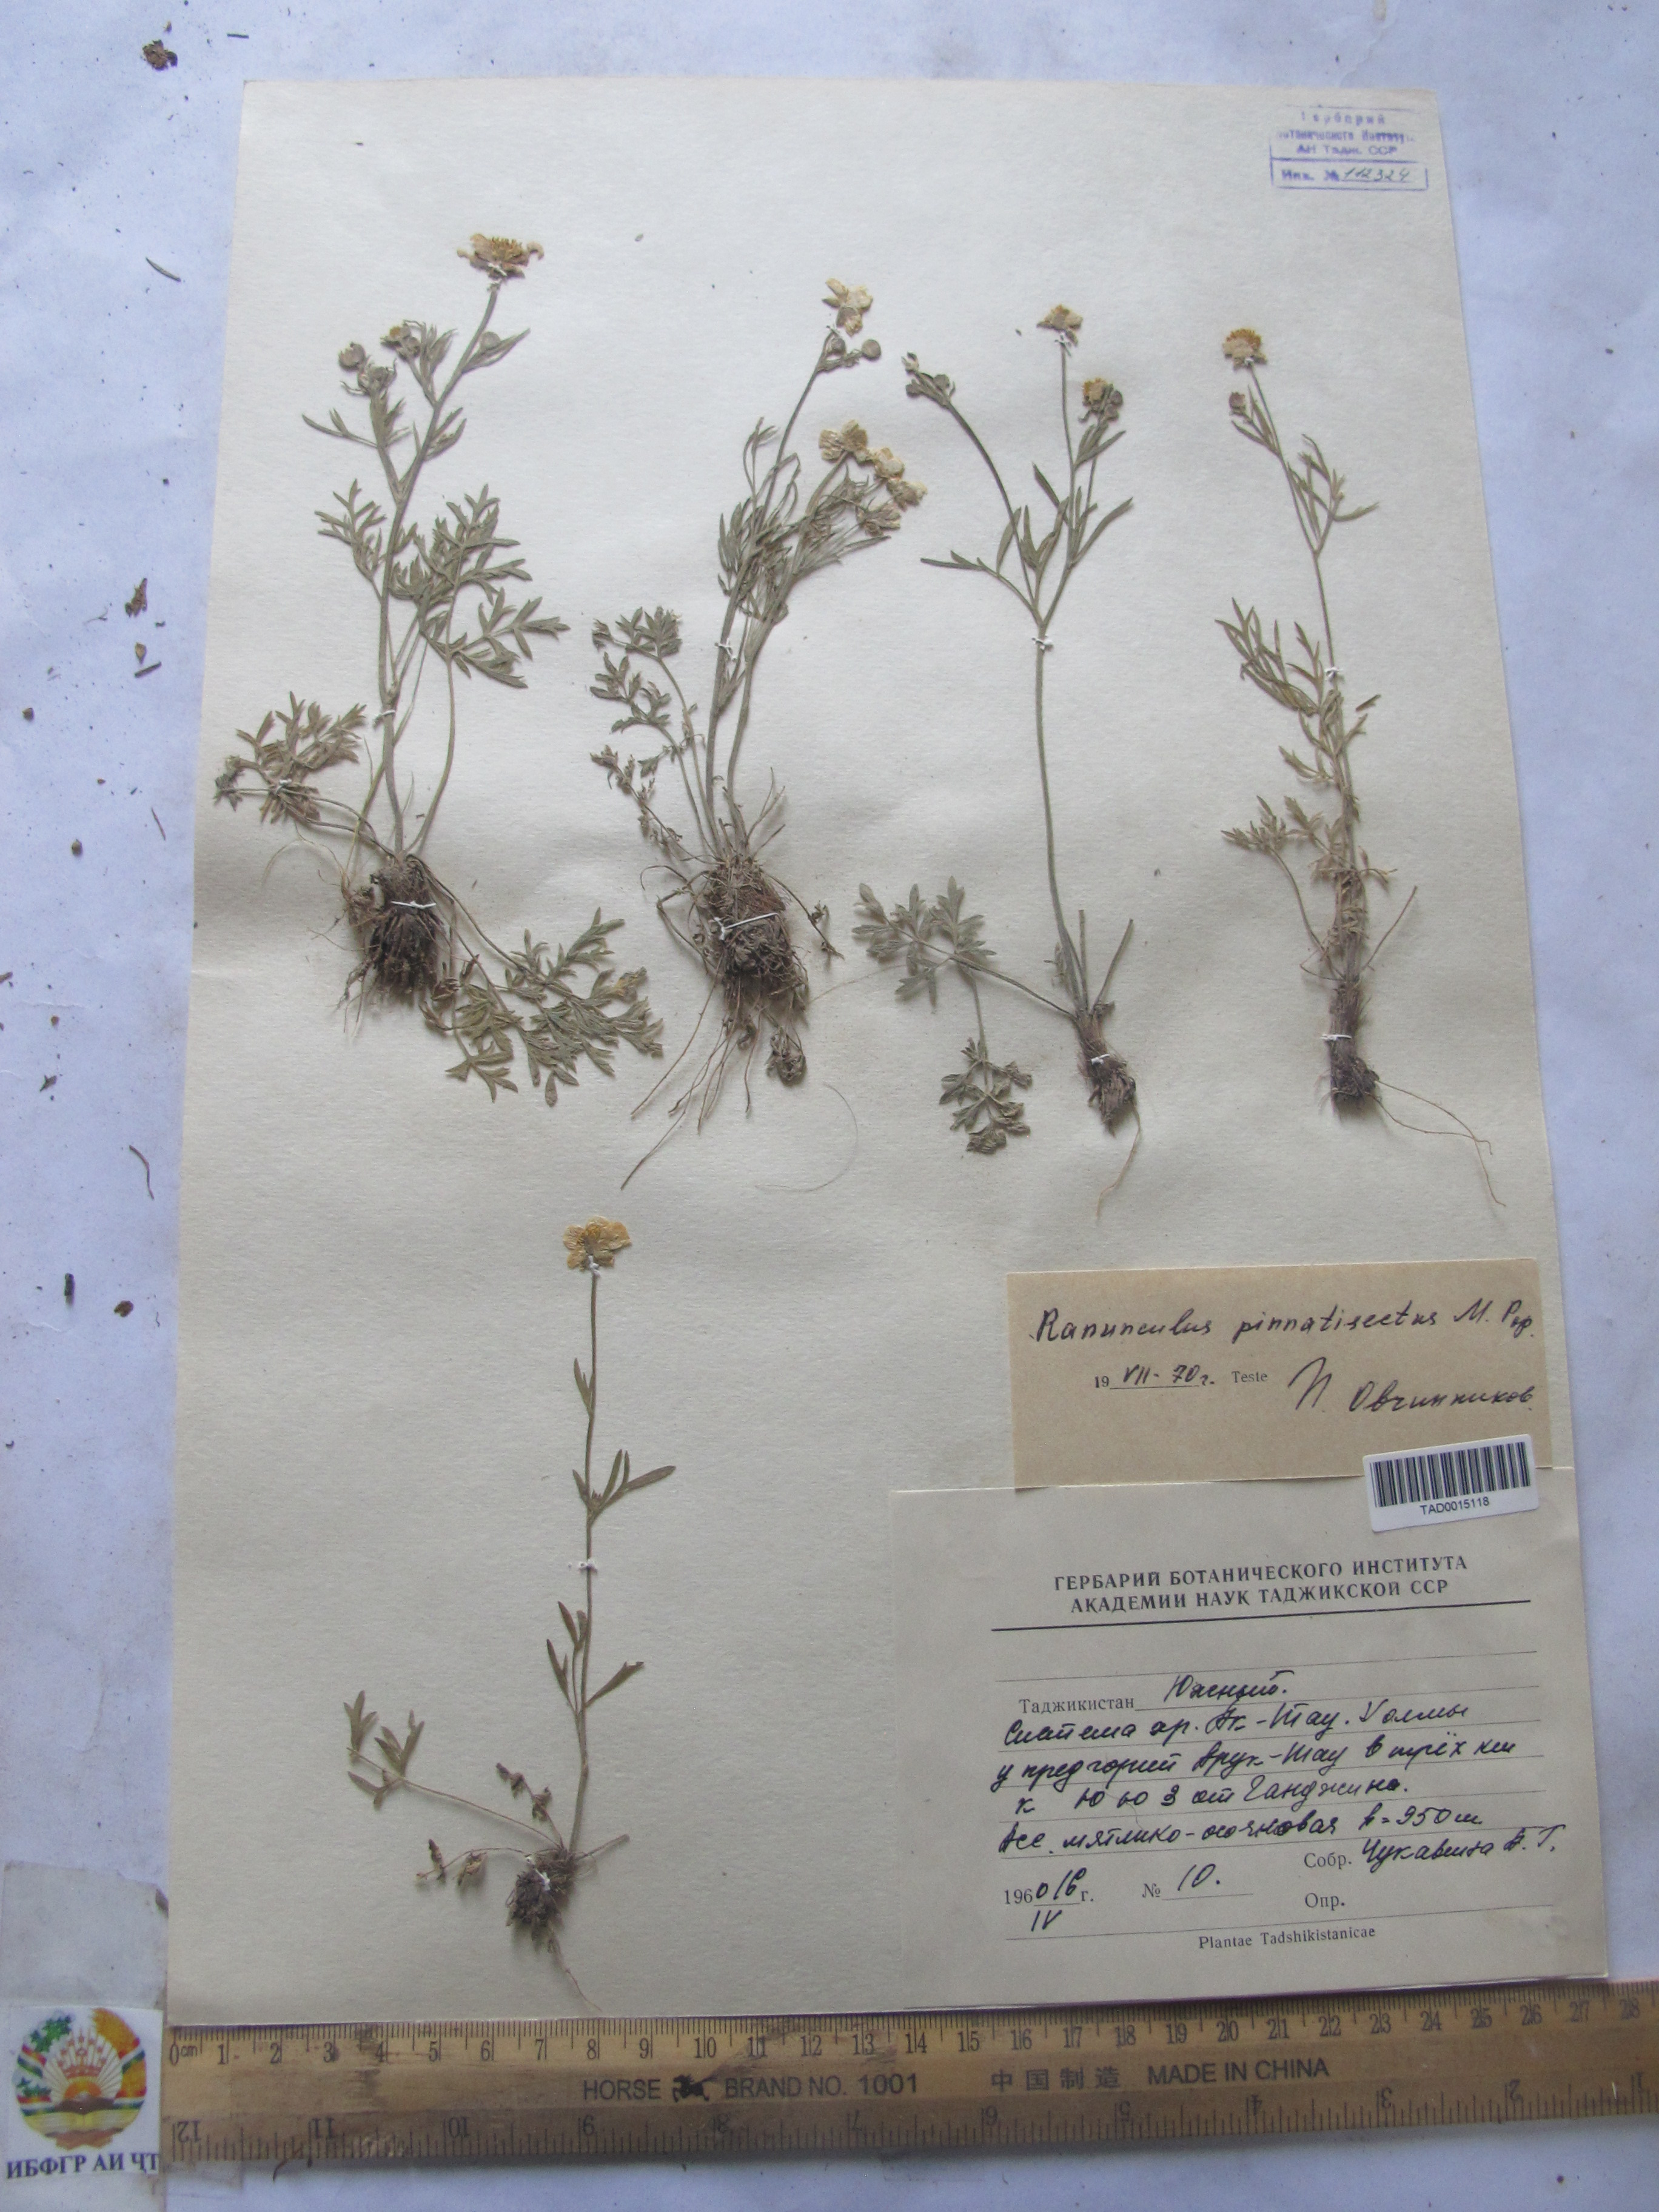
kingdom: Plantae
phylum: Tracheophyta
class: Magnoliopsida
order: Ranunculales
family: Ranunculaceae
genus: Ranunculus
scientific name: Ranunculus pinnatisectus
